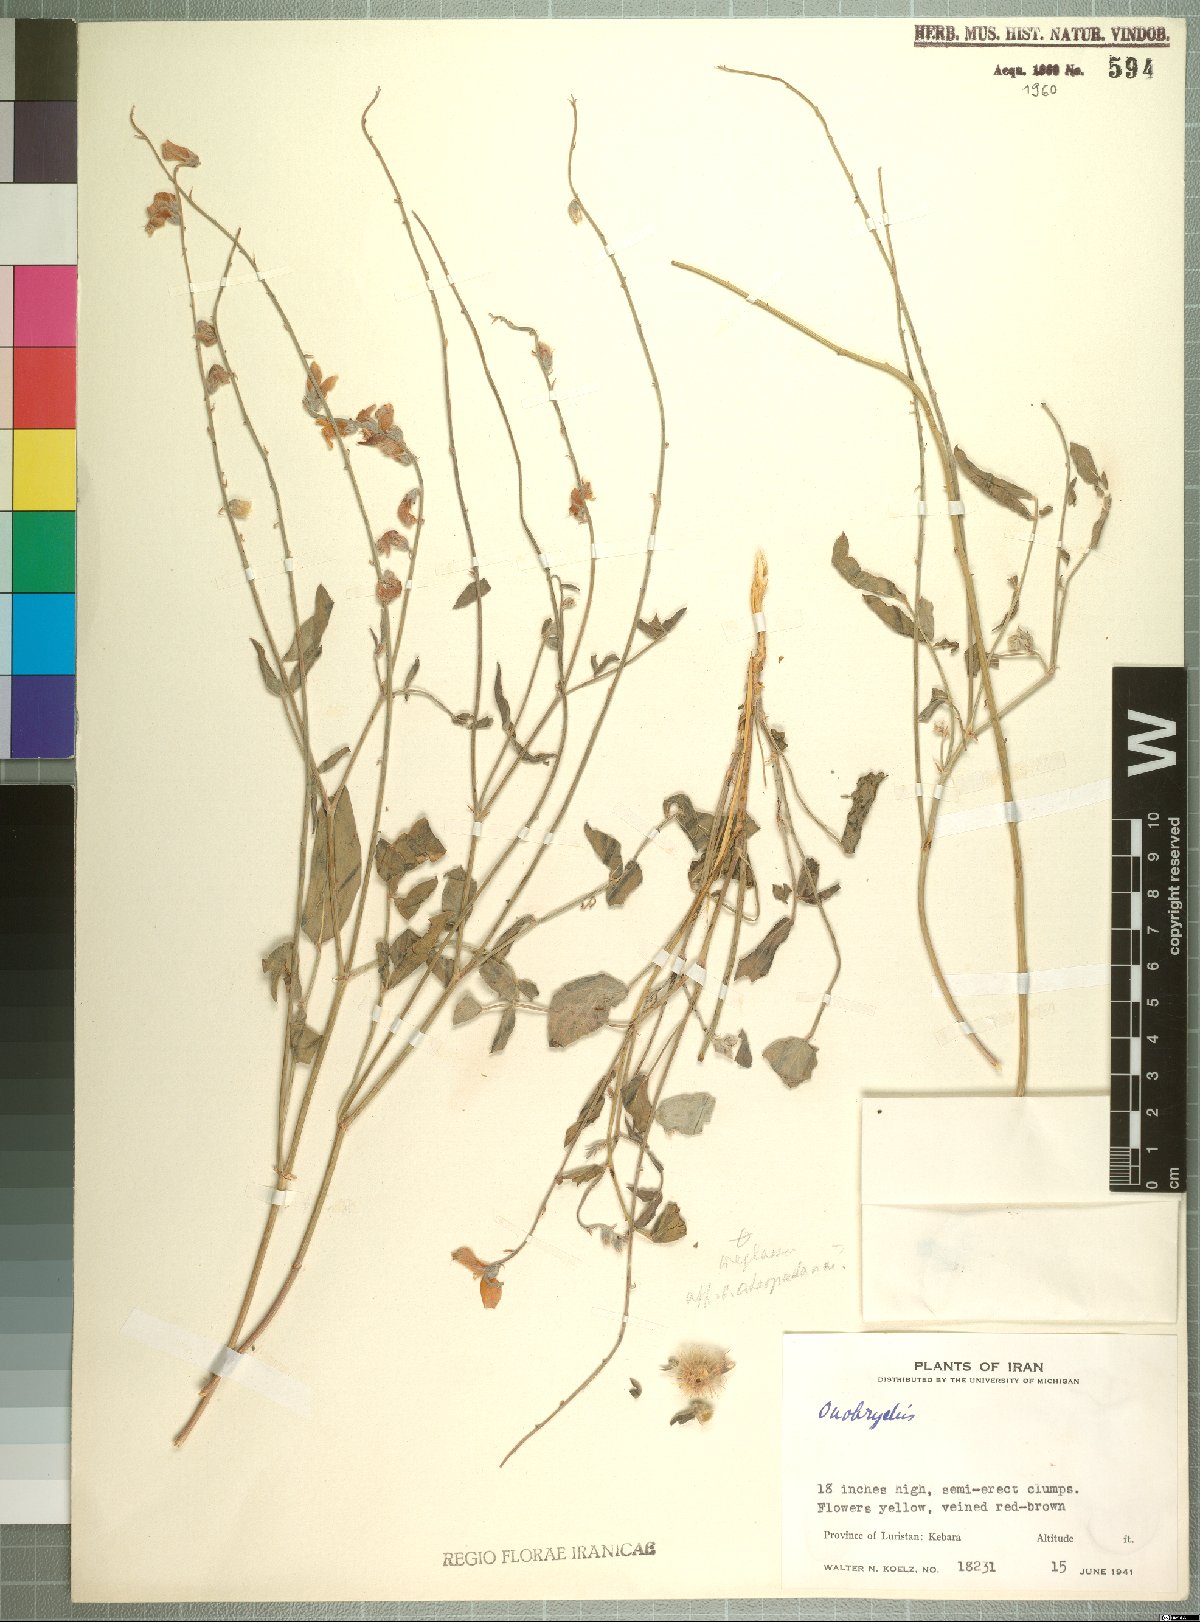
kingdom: Plantae
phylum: Tracheophyta
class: Magnoliopsida
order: Fabales
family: Fabaceae
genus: Onobrychis
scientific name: Onobrychis
